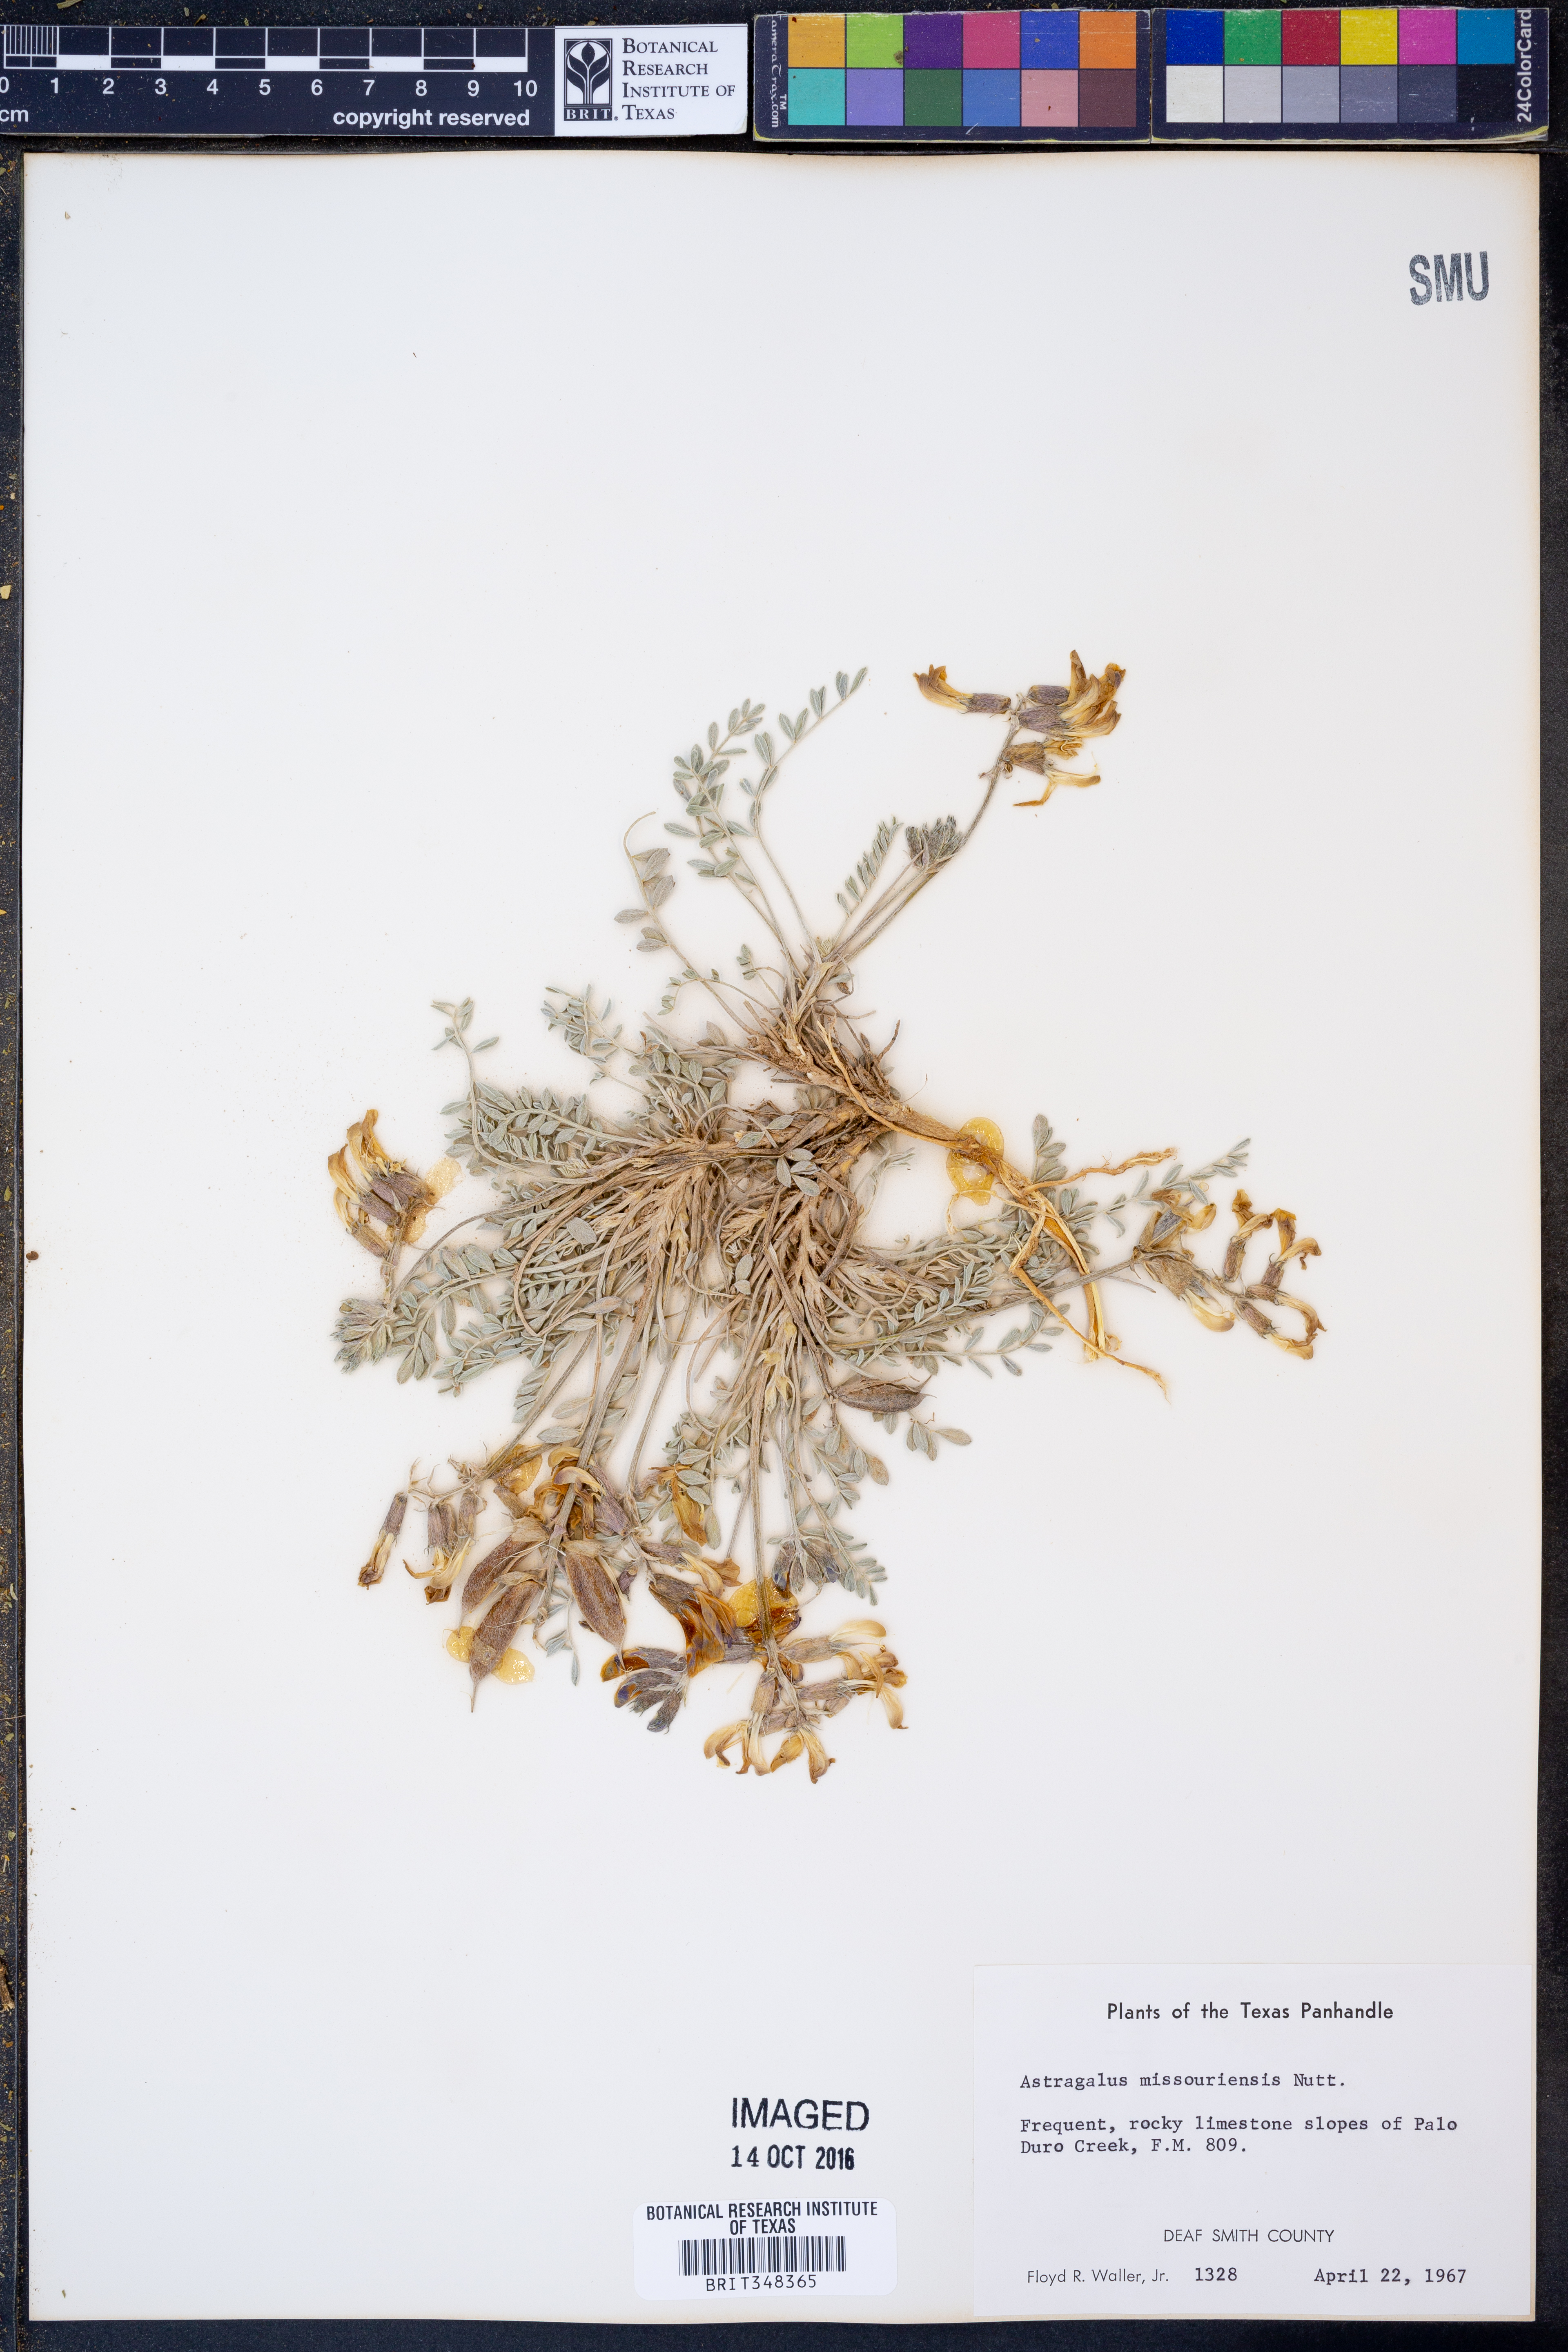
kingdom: Plantae
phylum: Tracheophyta
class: Magnoliopsida
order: Fabales
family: Fabaceae
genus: Astragalus
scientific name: Astragalus missouriensis
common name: Missouri milk-vetch
